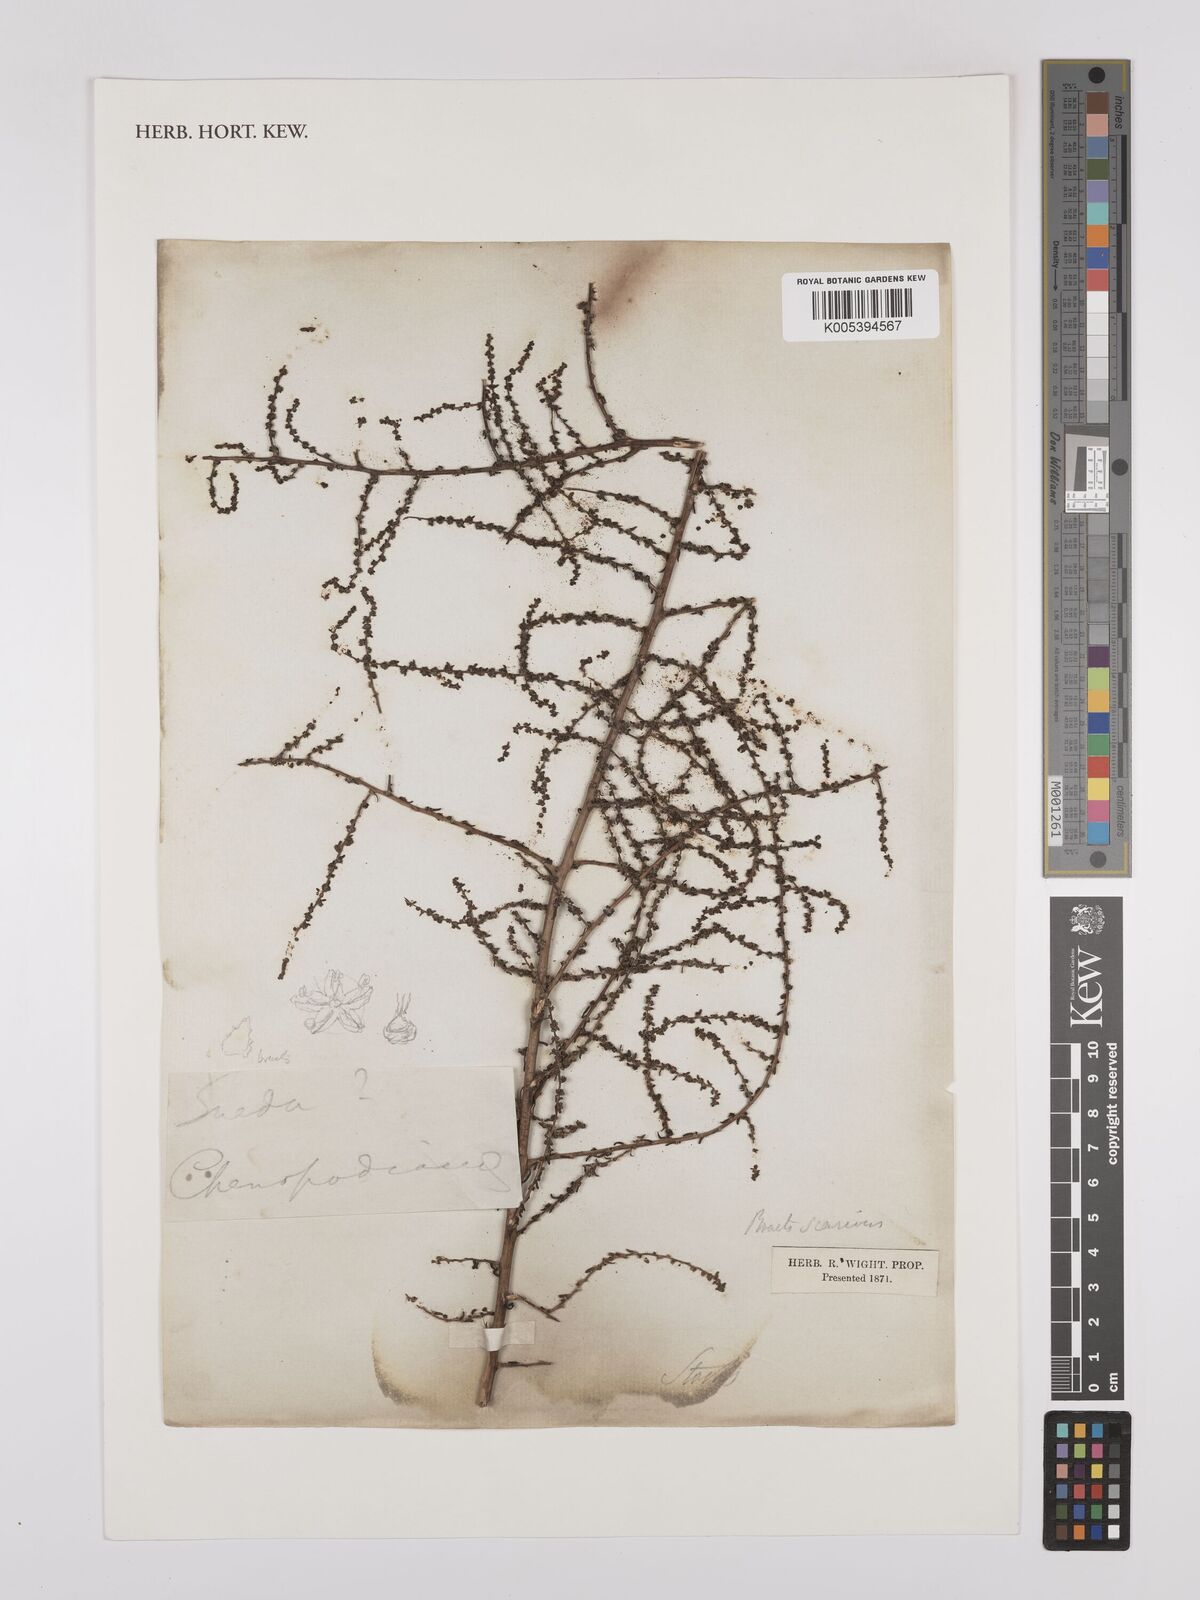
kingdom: Plantae
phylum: Tracheophyta
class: Magnoliopsida
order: Caryophyllales
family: Amaranthaceae
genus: Suaeda
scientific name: Suaeda
